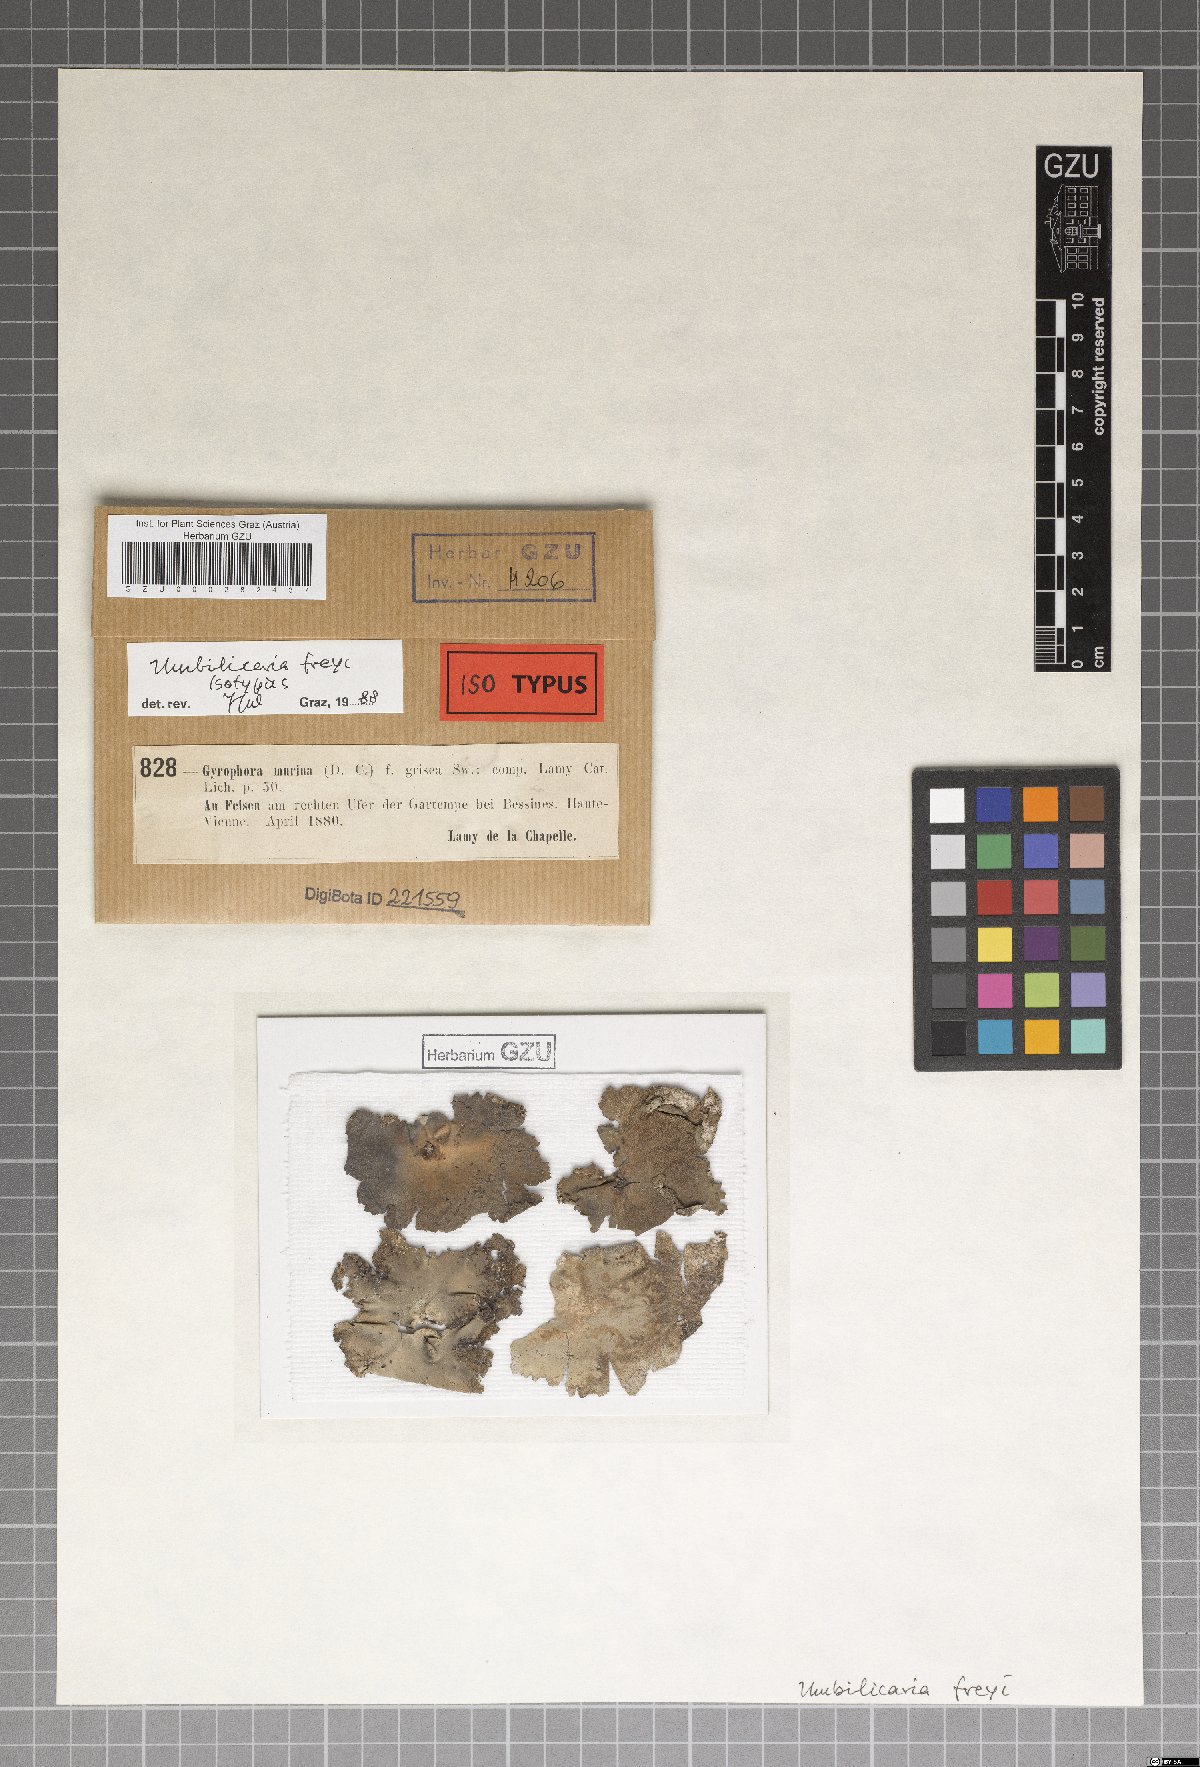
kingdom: Fungi
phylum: Ascomycota
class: Lecanoromycetes
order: Umbilicariales
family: Umbilicariaceae
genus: Umbilicaria
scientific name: Umbilicaria freyi
